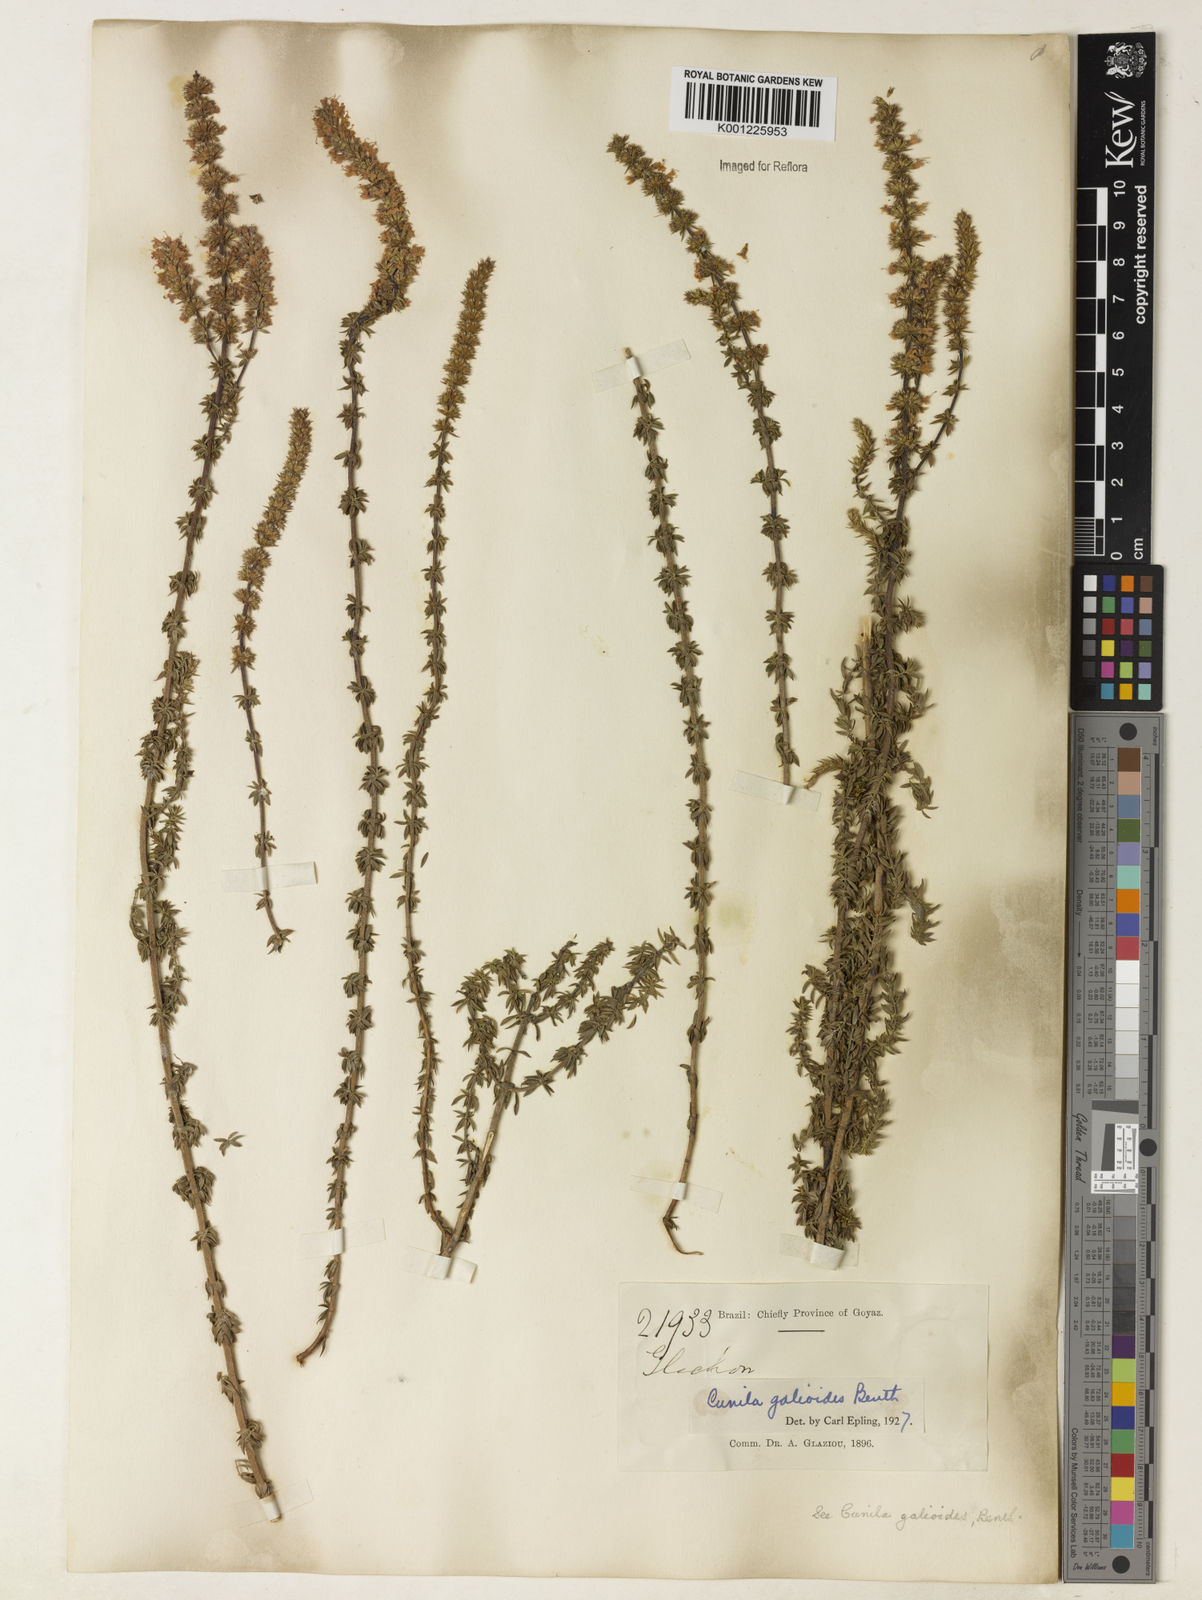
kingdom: Plantae
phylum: Tracheophyta
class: Magnoliopsida
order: Lamiales
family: Lamiaceae
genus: Cunila
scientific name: Cunila galioides
